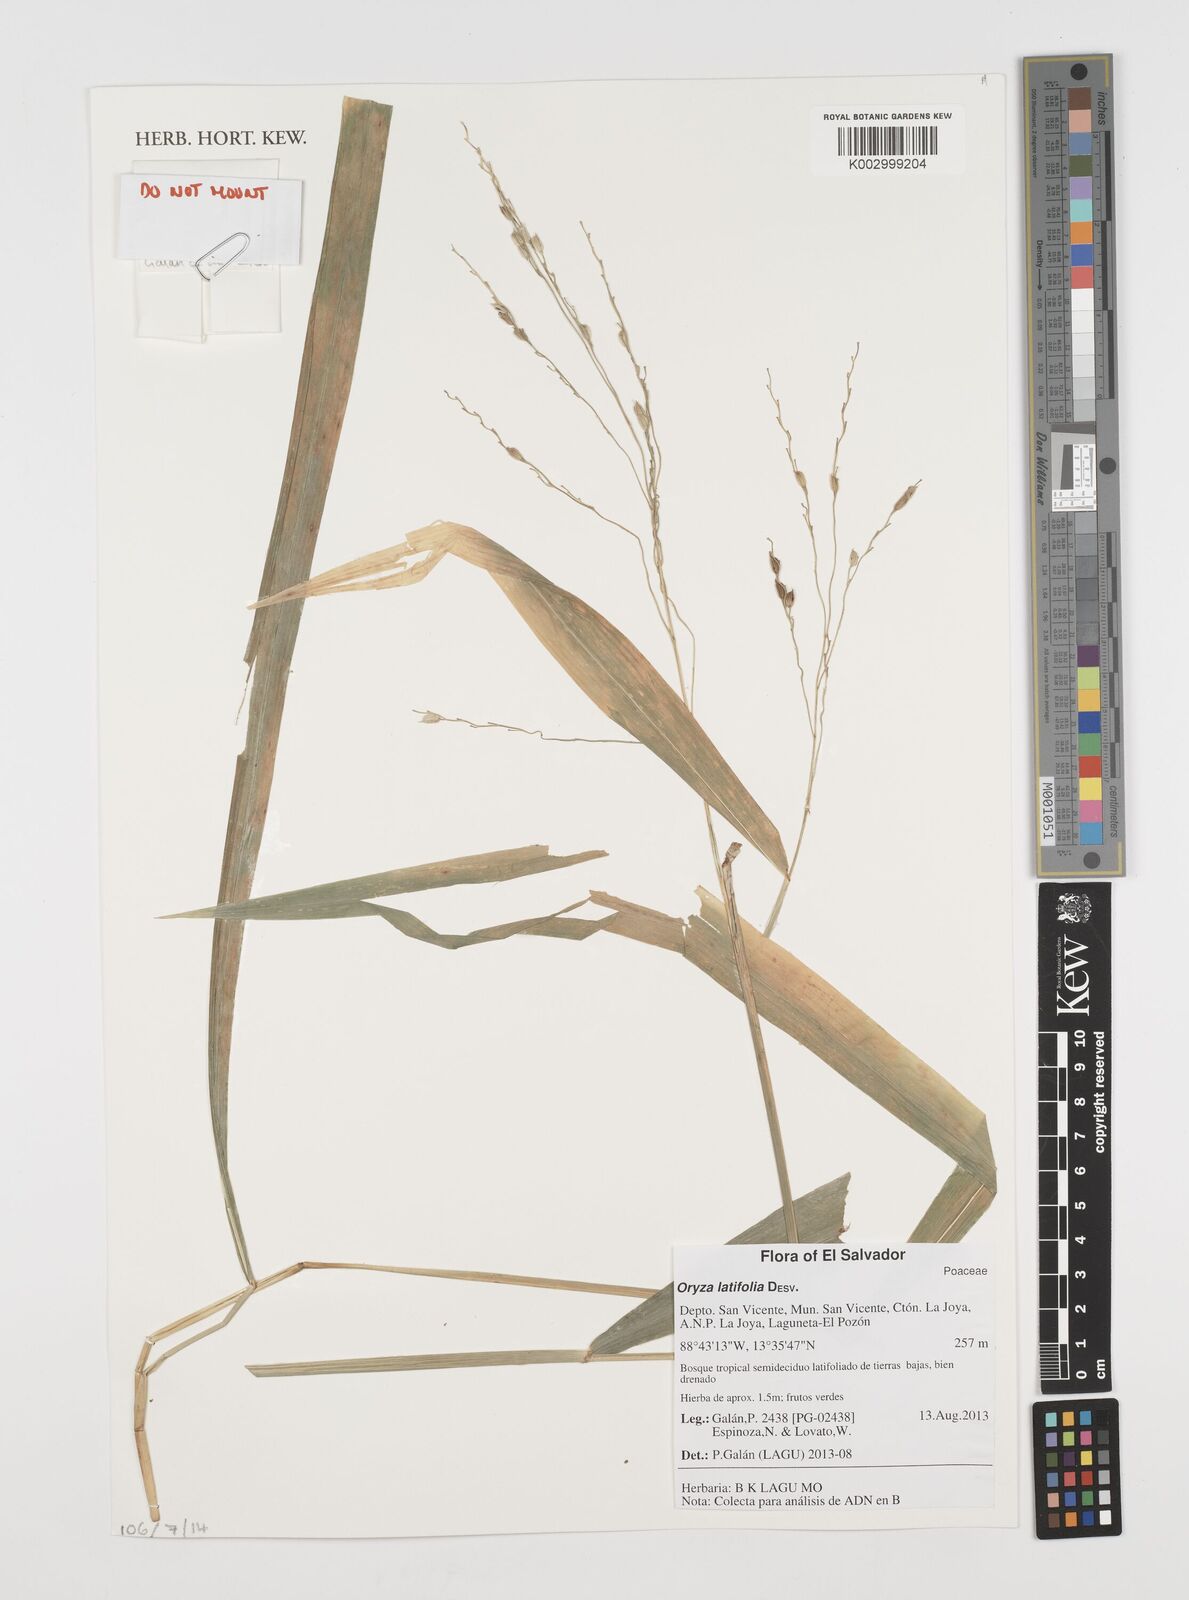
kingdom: Plantae
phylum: Tracheophyta
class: Liliopsida
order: Poales
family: Poaceae
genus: Oryza
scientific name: Oryza latifolia
